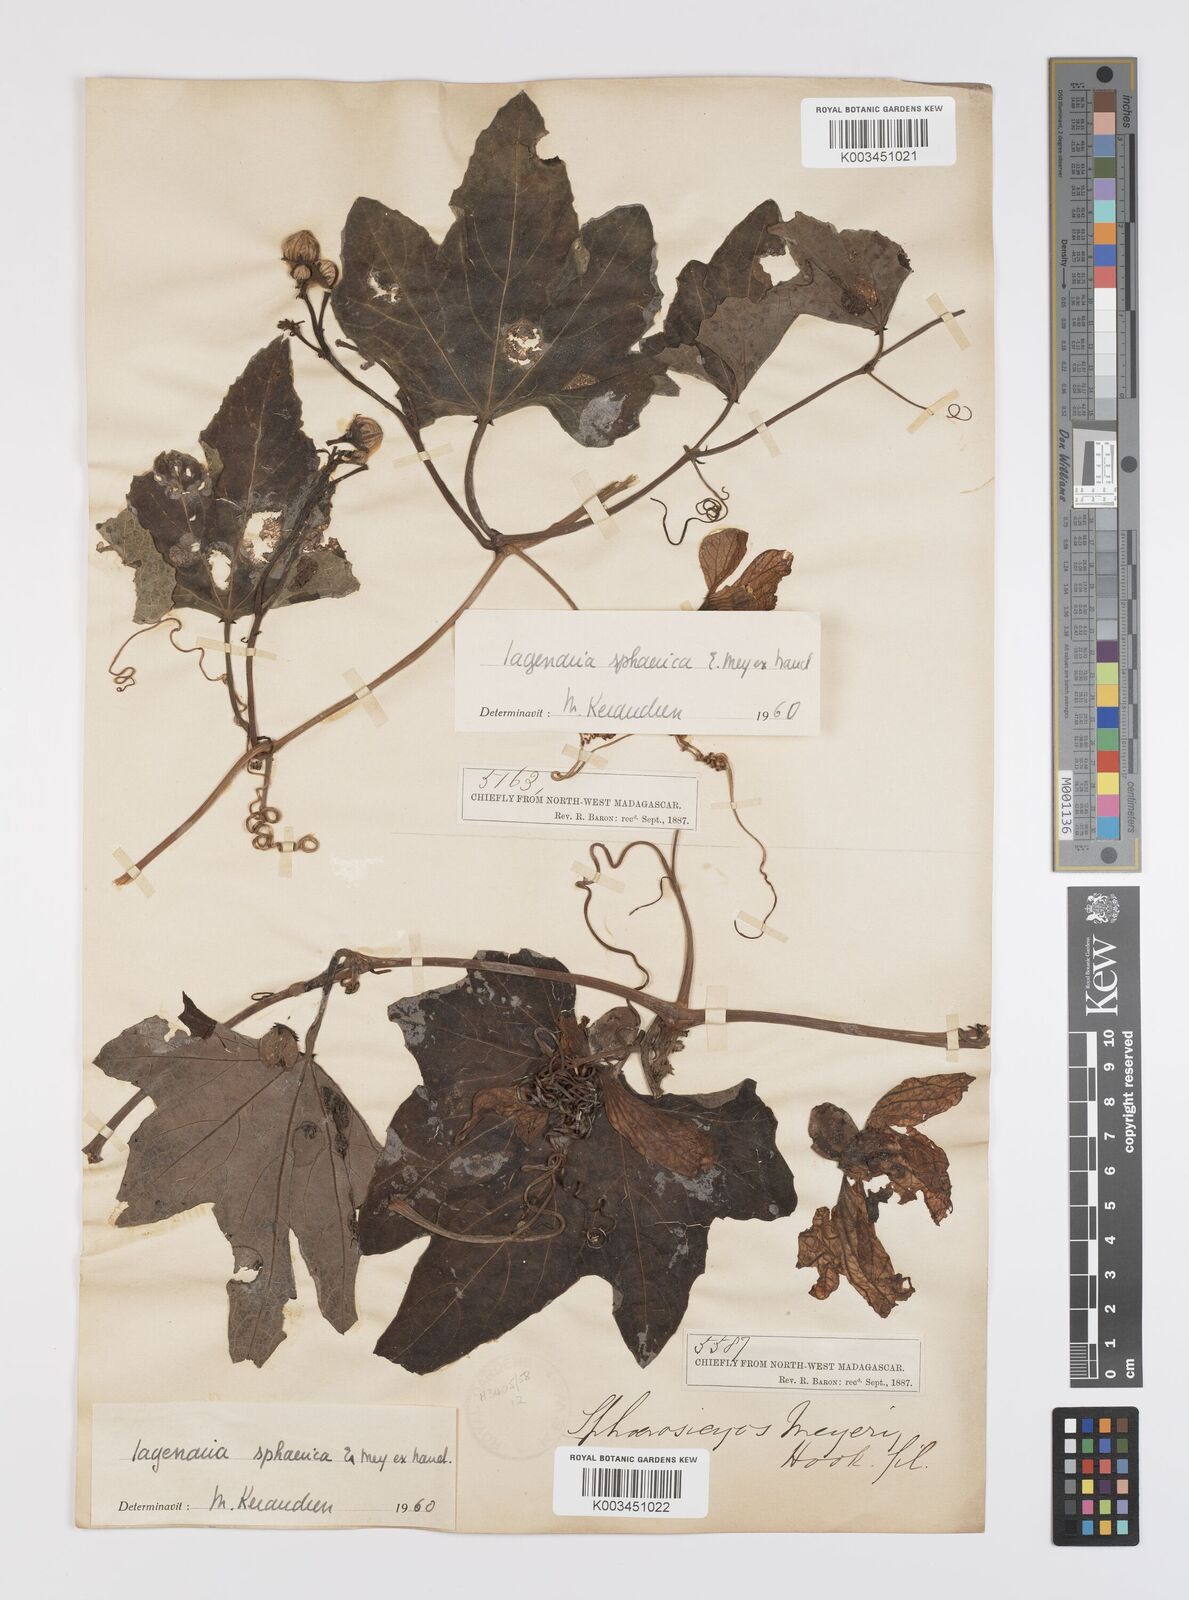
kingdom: Plantae
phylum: Tracheophyta
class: Magnoliopsida
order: Cucurbitales
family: Cucurbitaceae
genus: Lagenaria
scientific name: Lagenaria sphaerica
